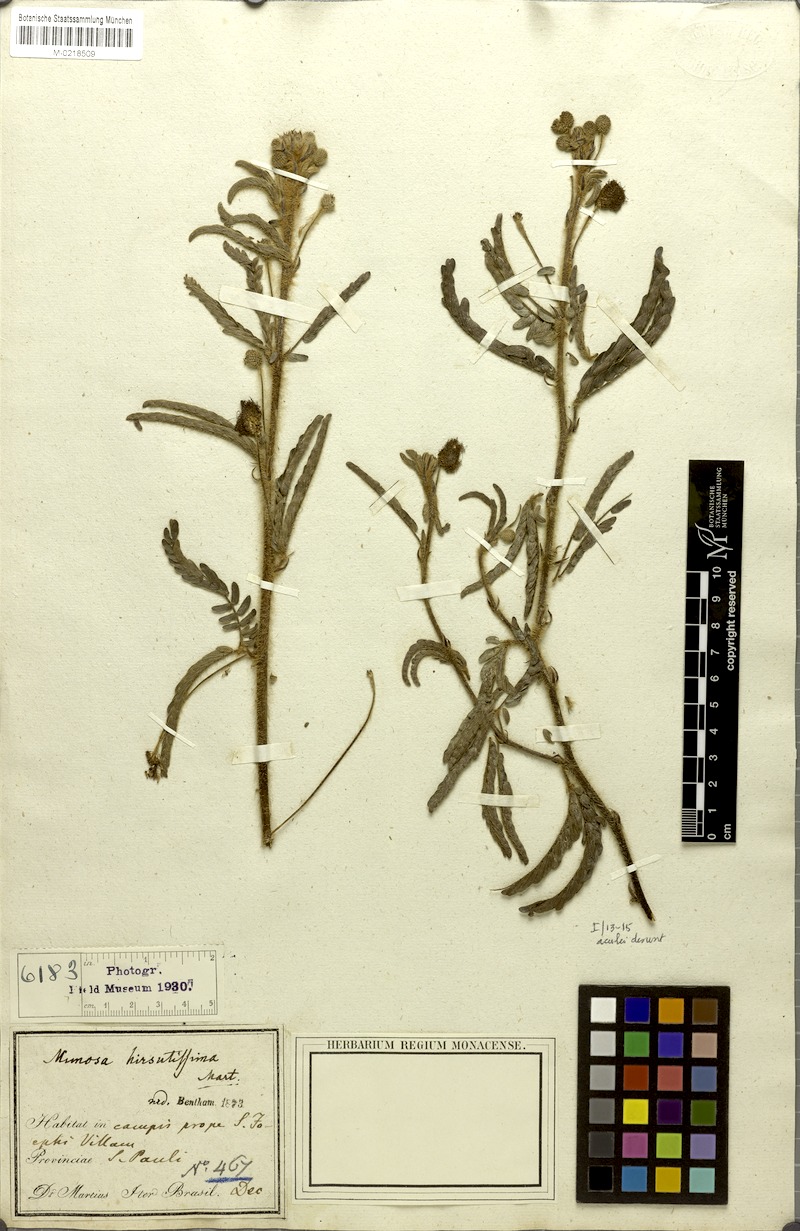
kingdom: Plantae
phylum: Tracheophyta
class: Magnoliopsida
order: Fabales
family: Fabaceae
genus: Mimosa
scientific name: Mimosa hirsutissima
